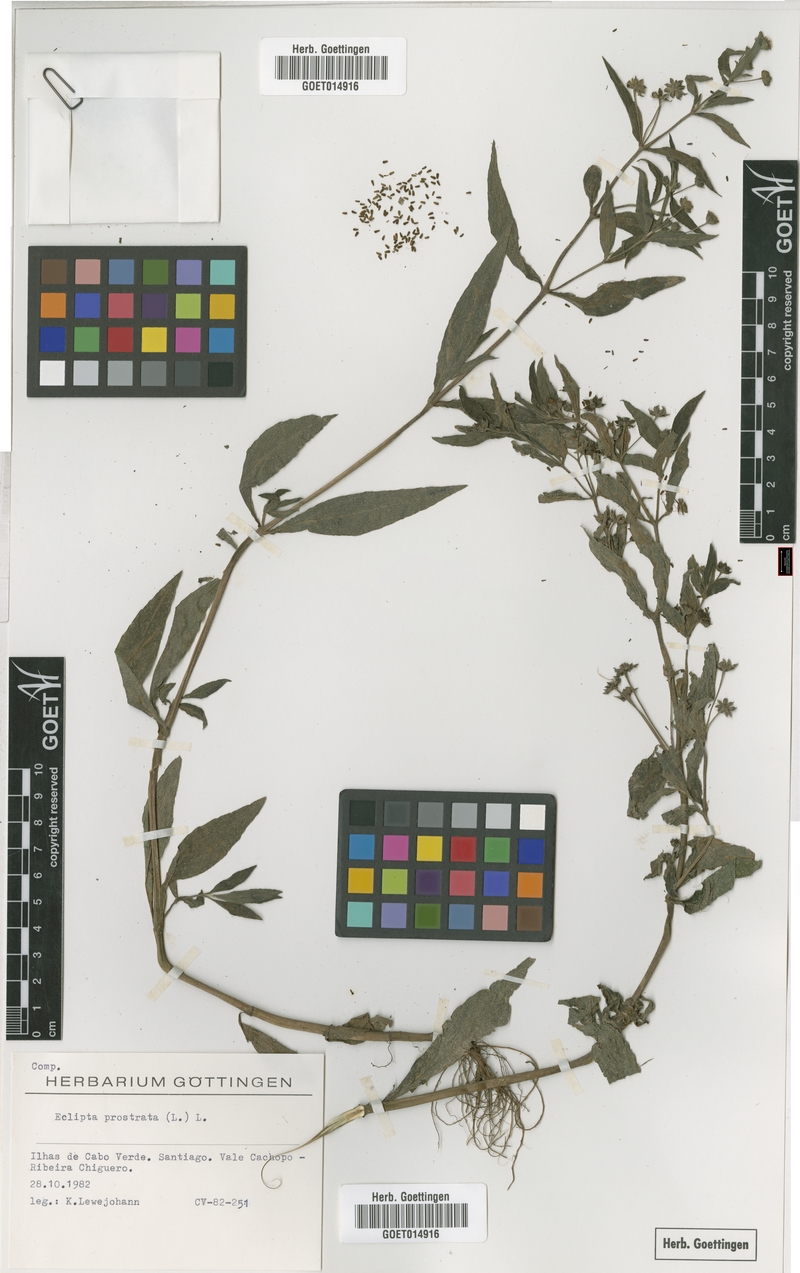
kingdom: Plantae
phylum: Tracheophyta
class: Magnoliopsida
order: Asterales
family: Asteraceae
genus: Eclipta
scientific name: Eclipta prostrata
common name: False daisy
